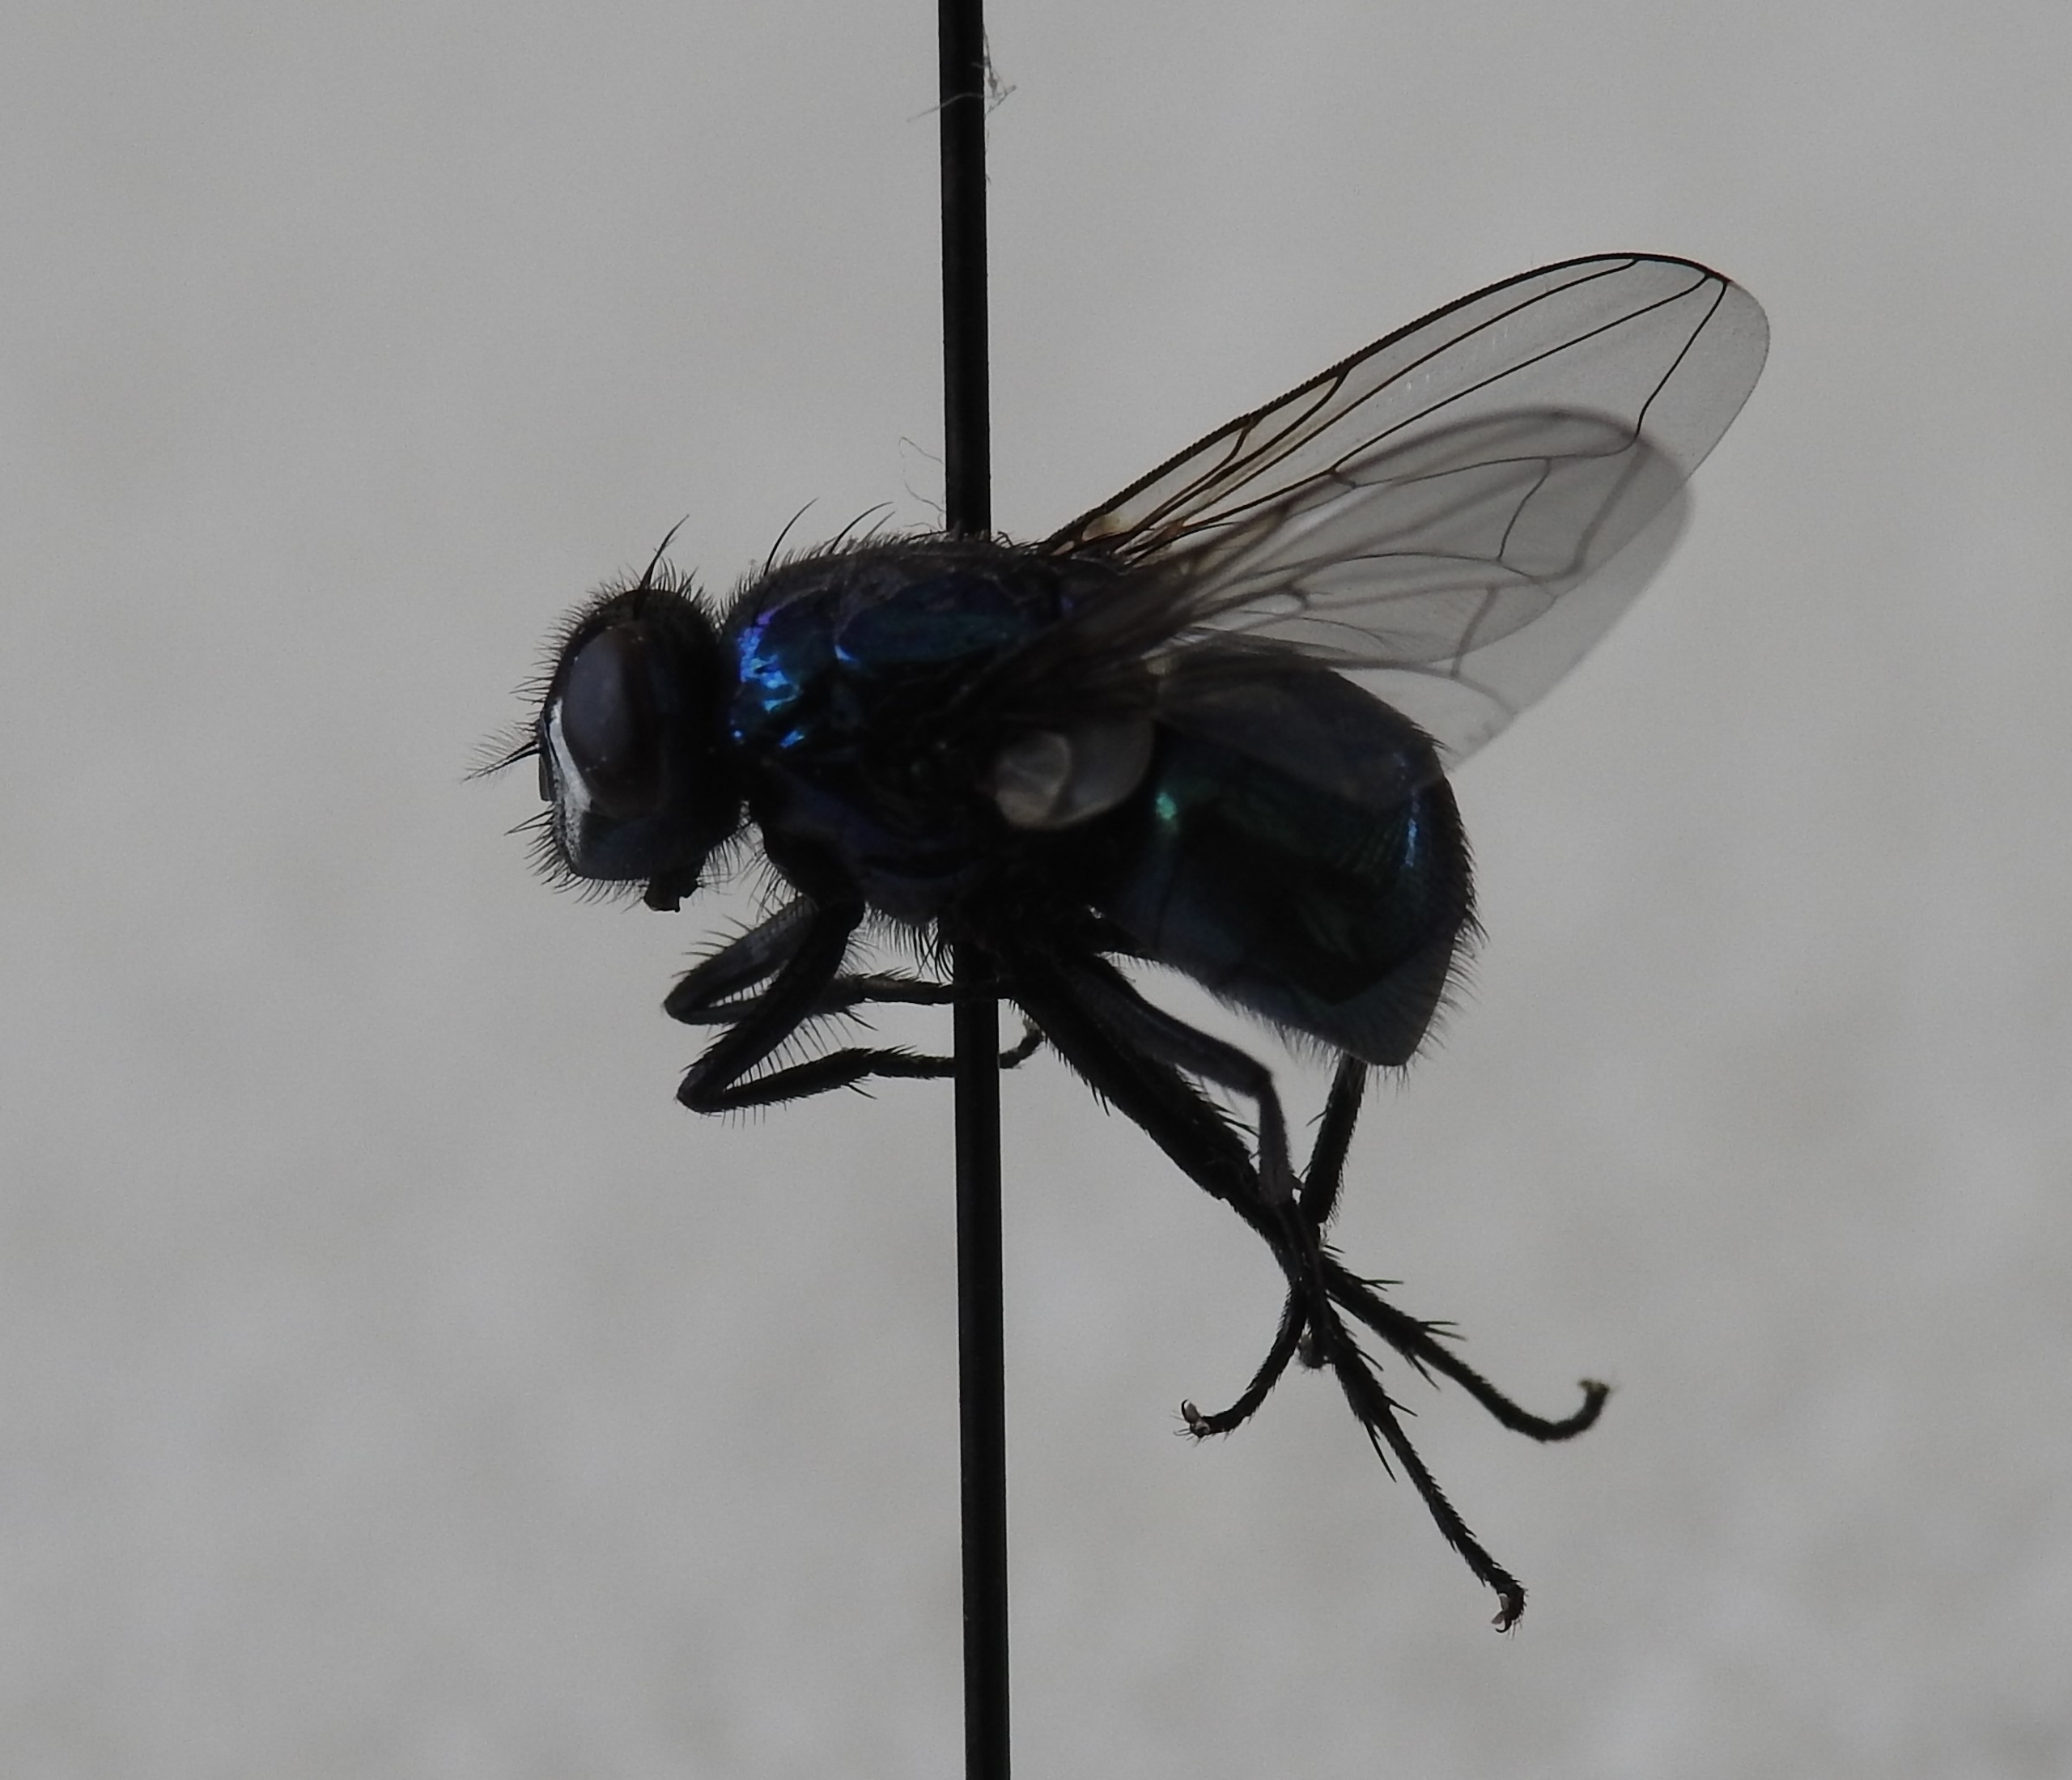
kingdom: Animalia
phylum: Arthropoda
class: Insecta
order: Diptera
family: Muscidae
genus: Neomyia
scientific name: Neomyia viridescens
